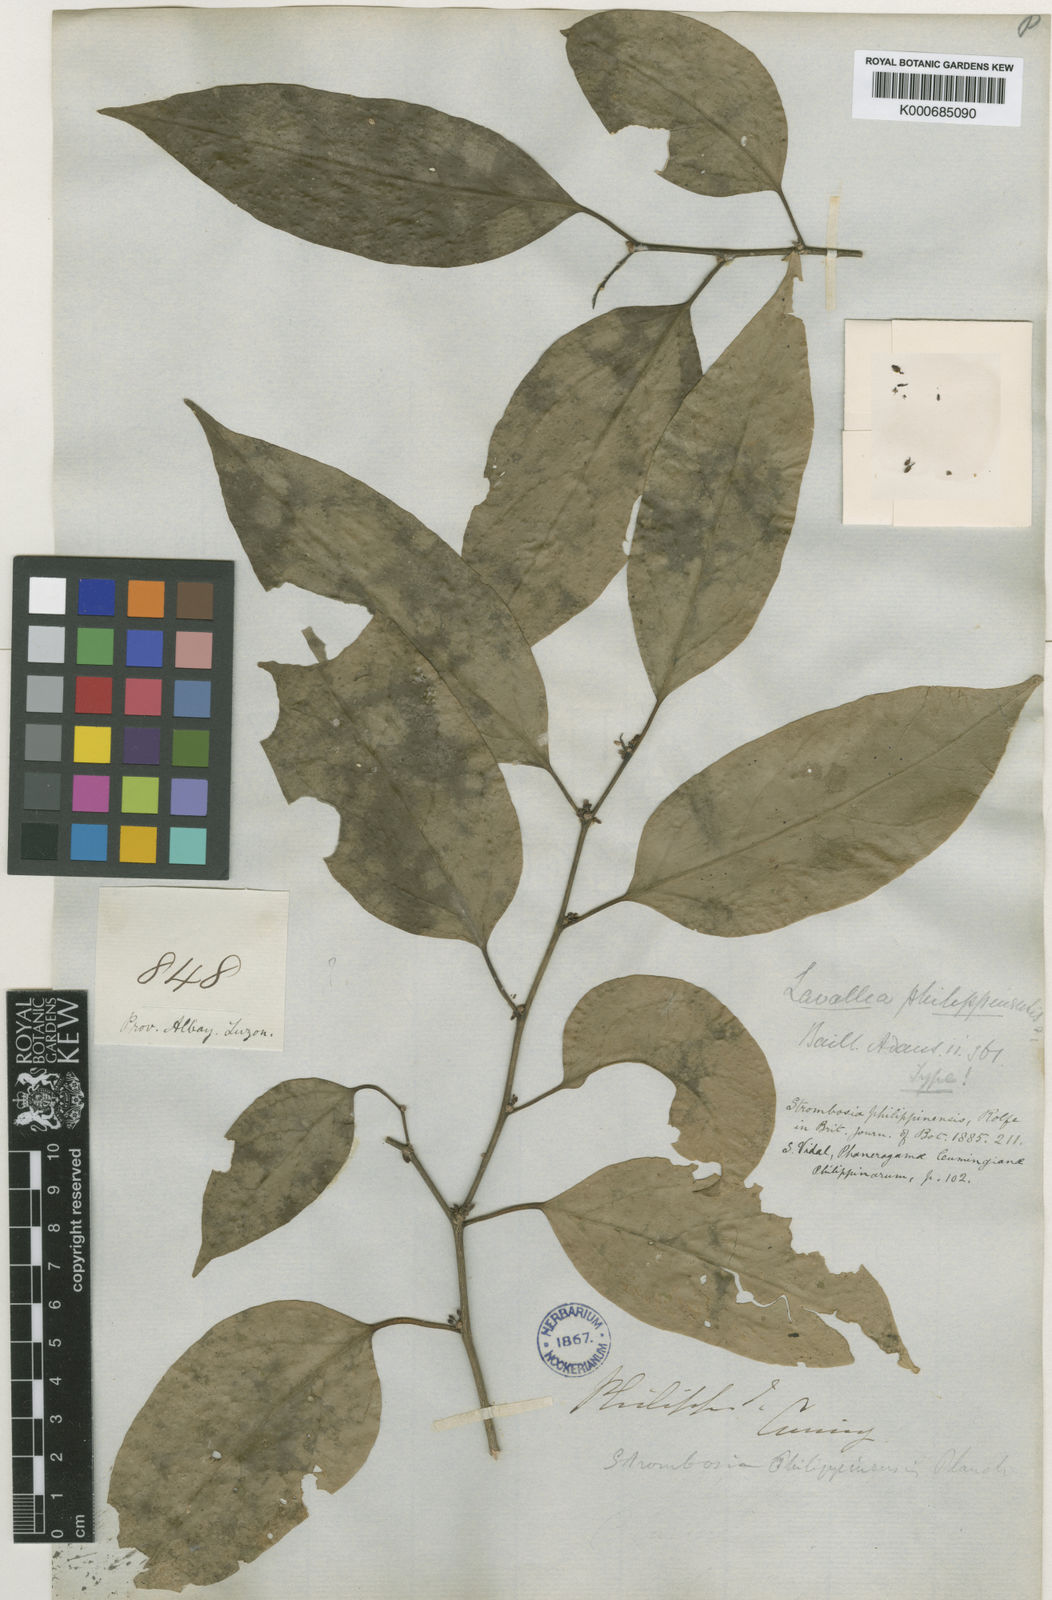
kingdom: Plantae
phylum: Tracheophyta
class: Magnoliopsida
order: Santalales
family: Strombosiaceae
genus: Strombosia
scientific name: Strombosia
